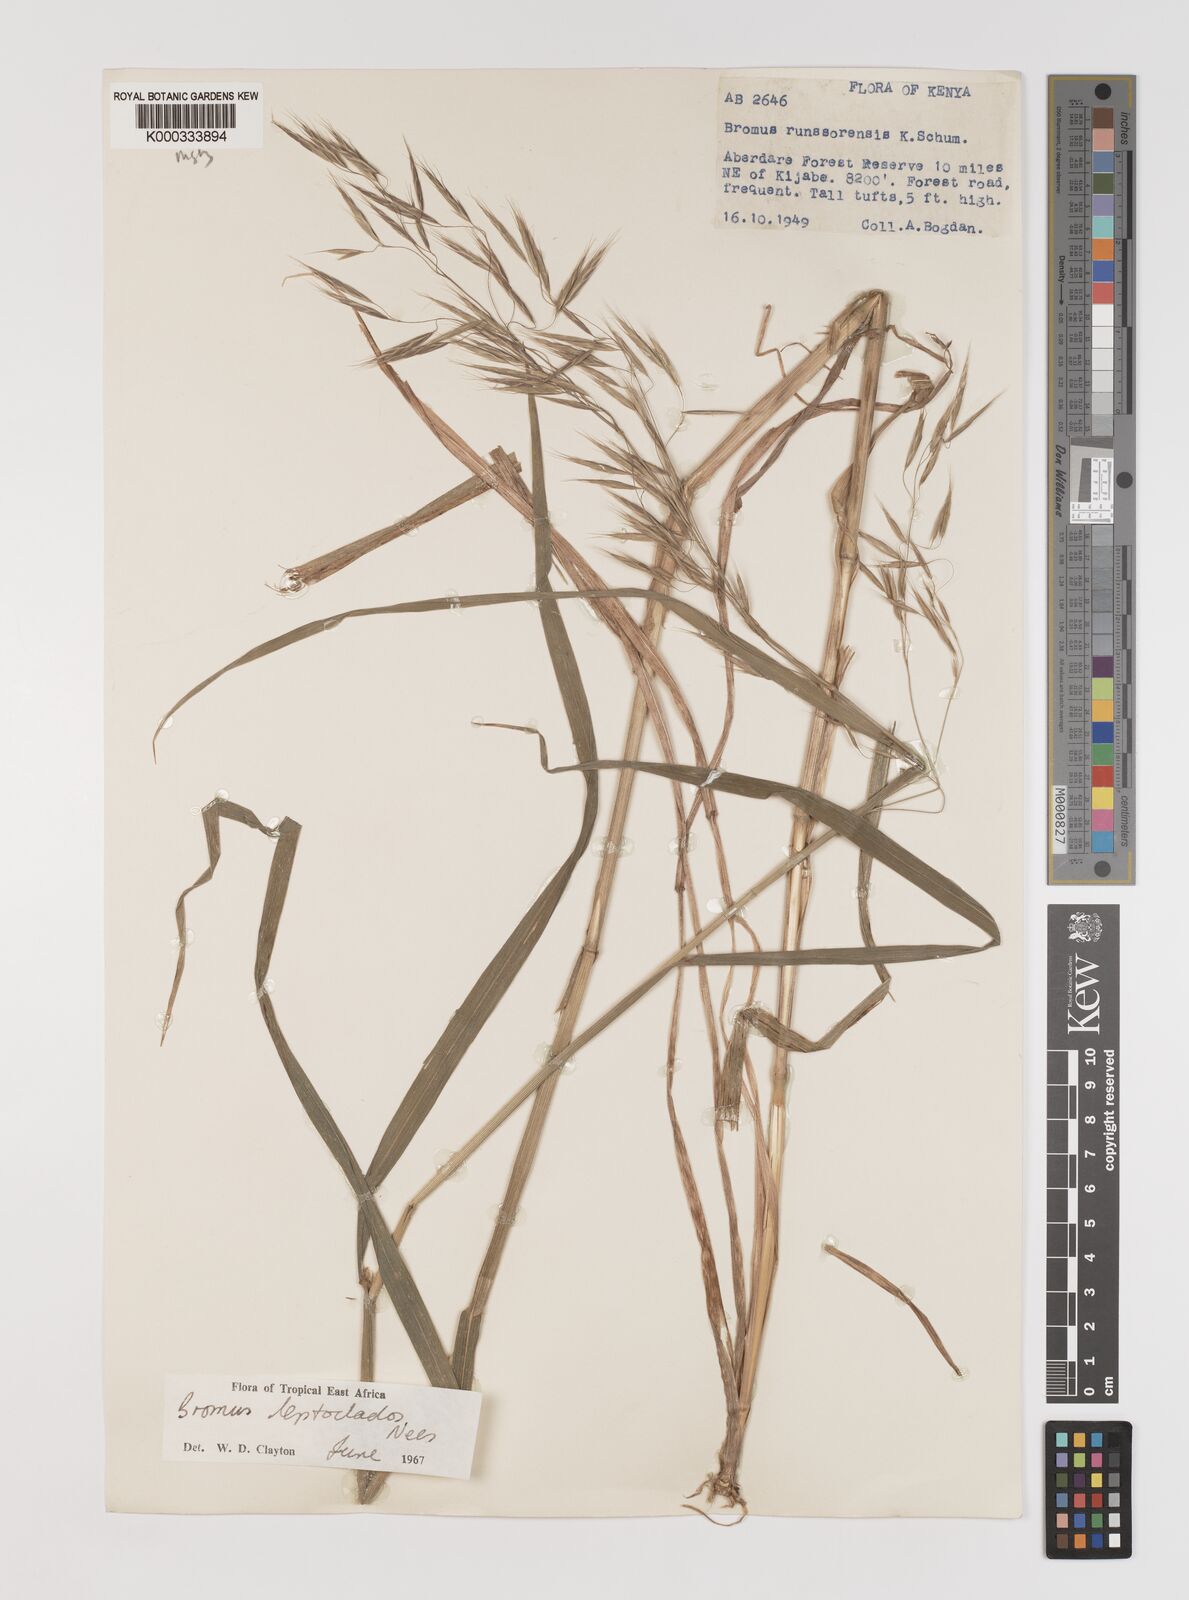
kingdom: Plantae
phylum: Tracheophyta
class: Liliopsida
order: Poales
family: Poaceae
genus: Bromus
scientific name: Bromus leptoclados
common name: Mountain bromegrass
